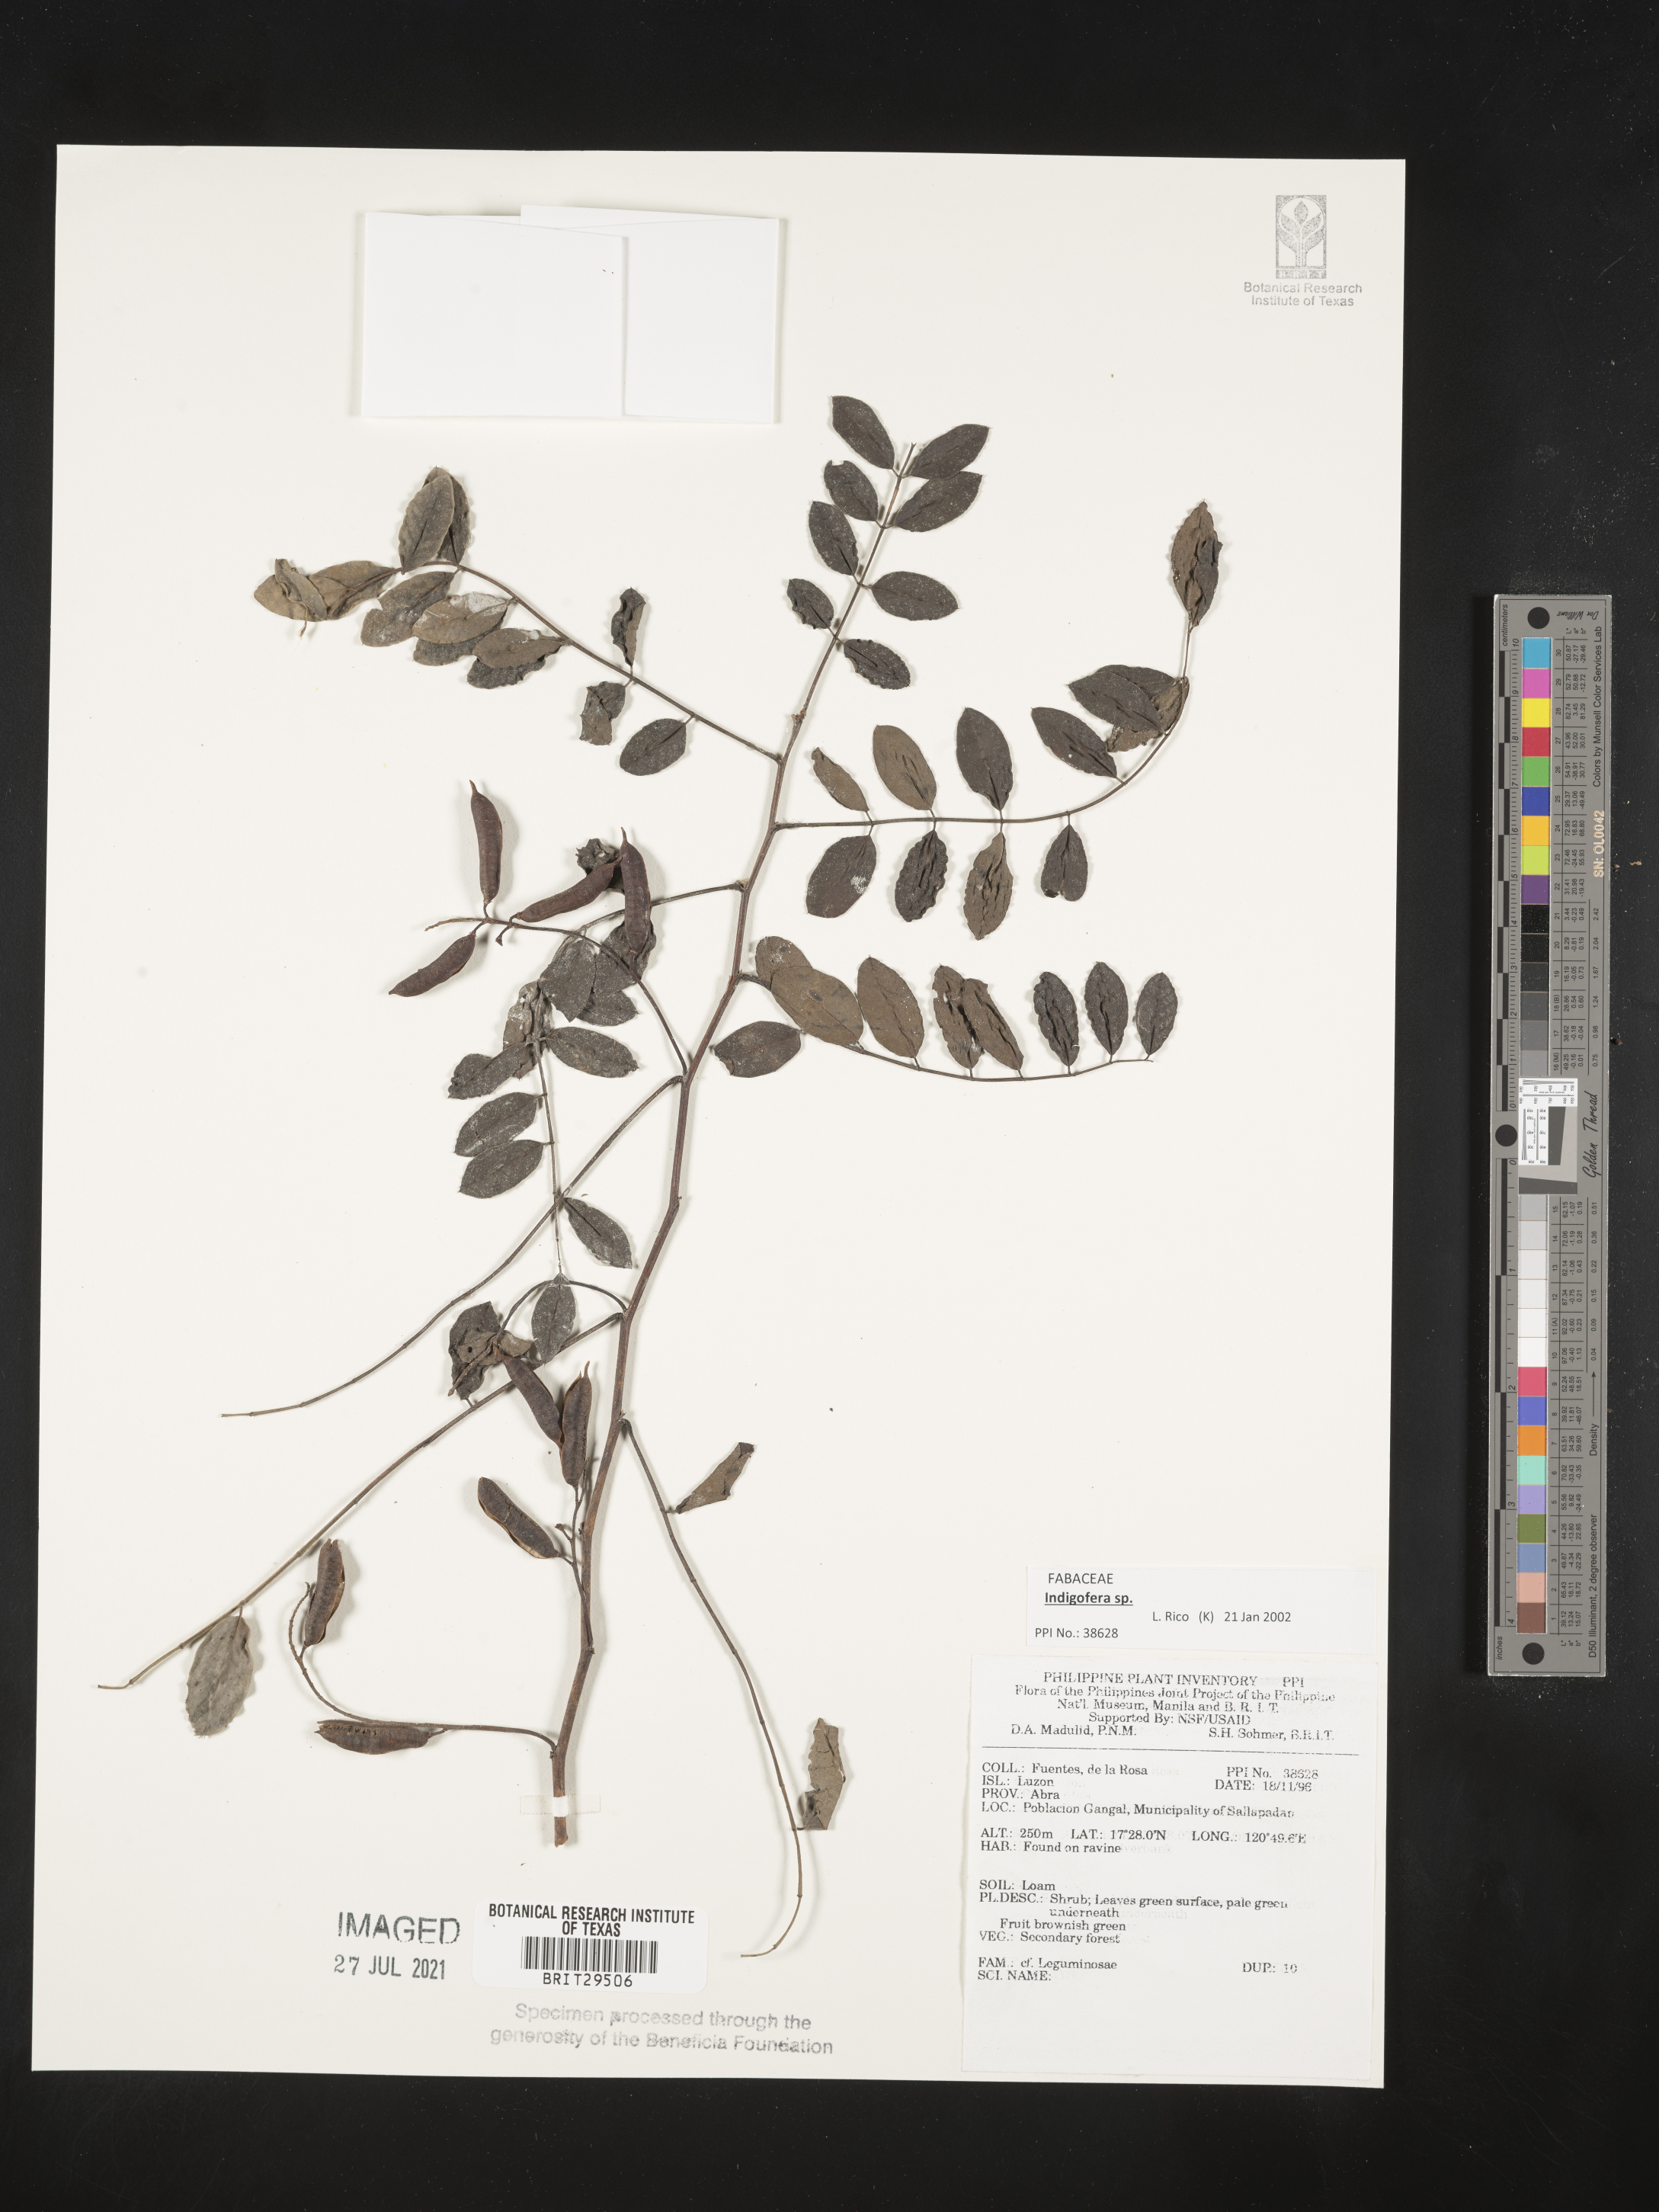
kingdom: Plantae
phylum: Tracheophyta
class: Magnoliopsida
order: Fabales
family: Fabaceae
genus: Indigofera
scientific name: Indigofera
